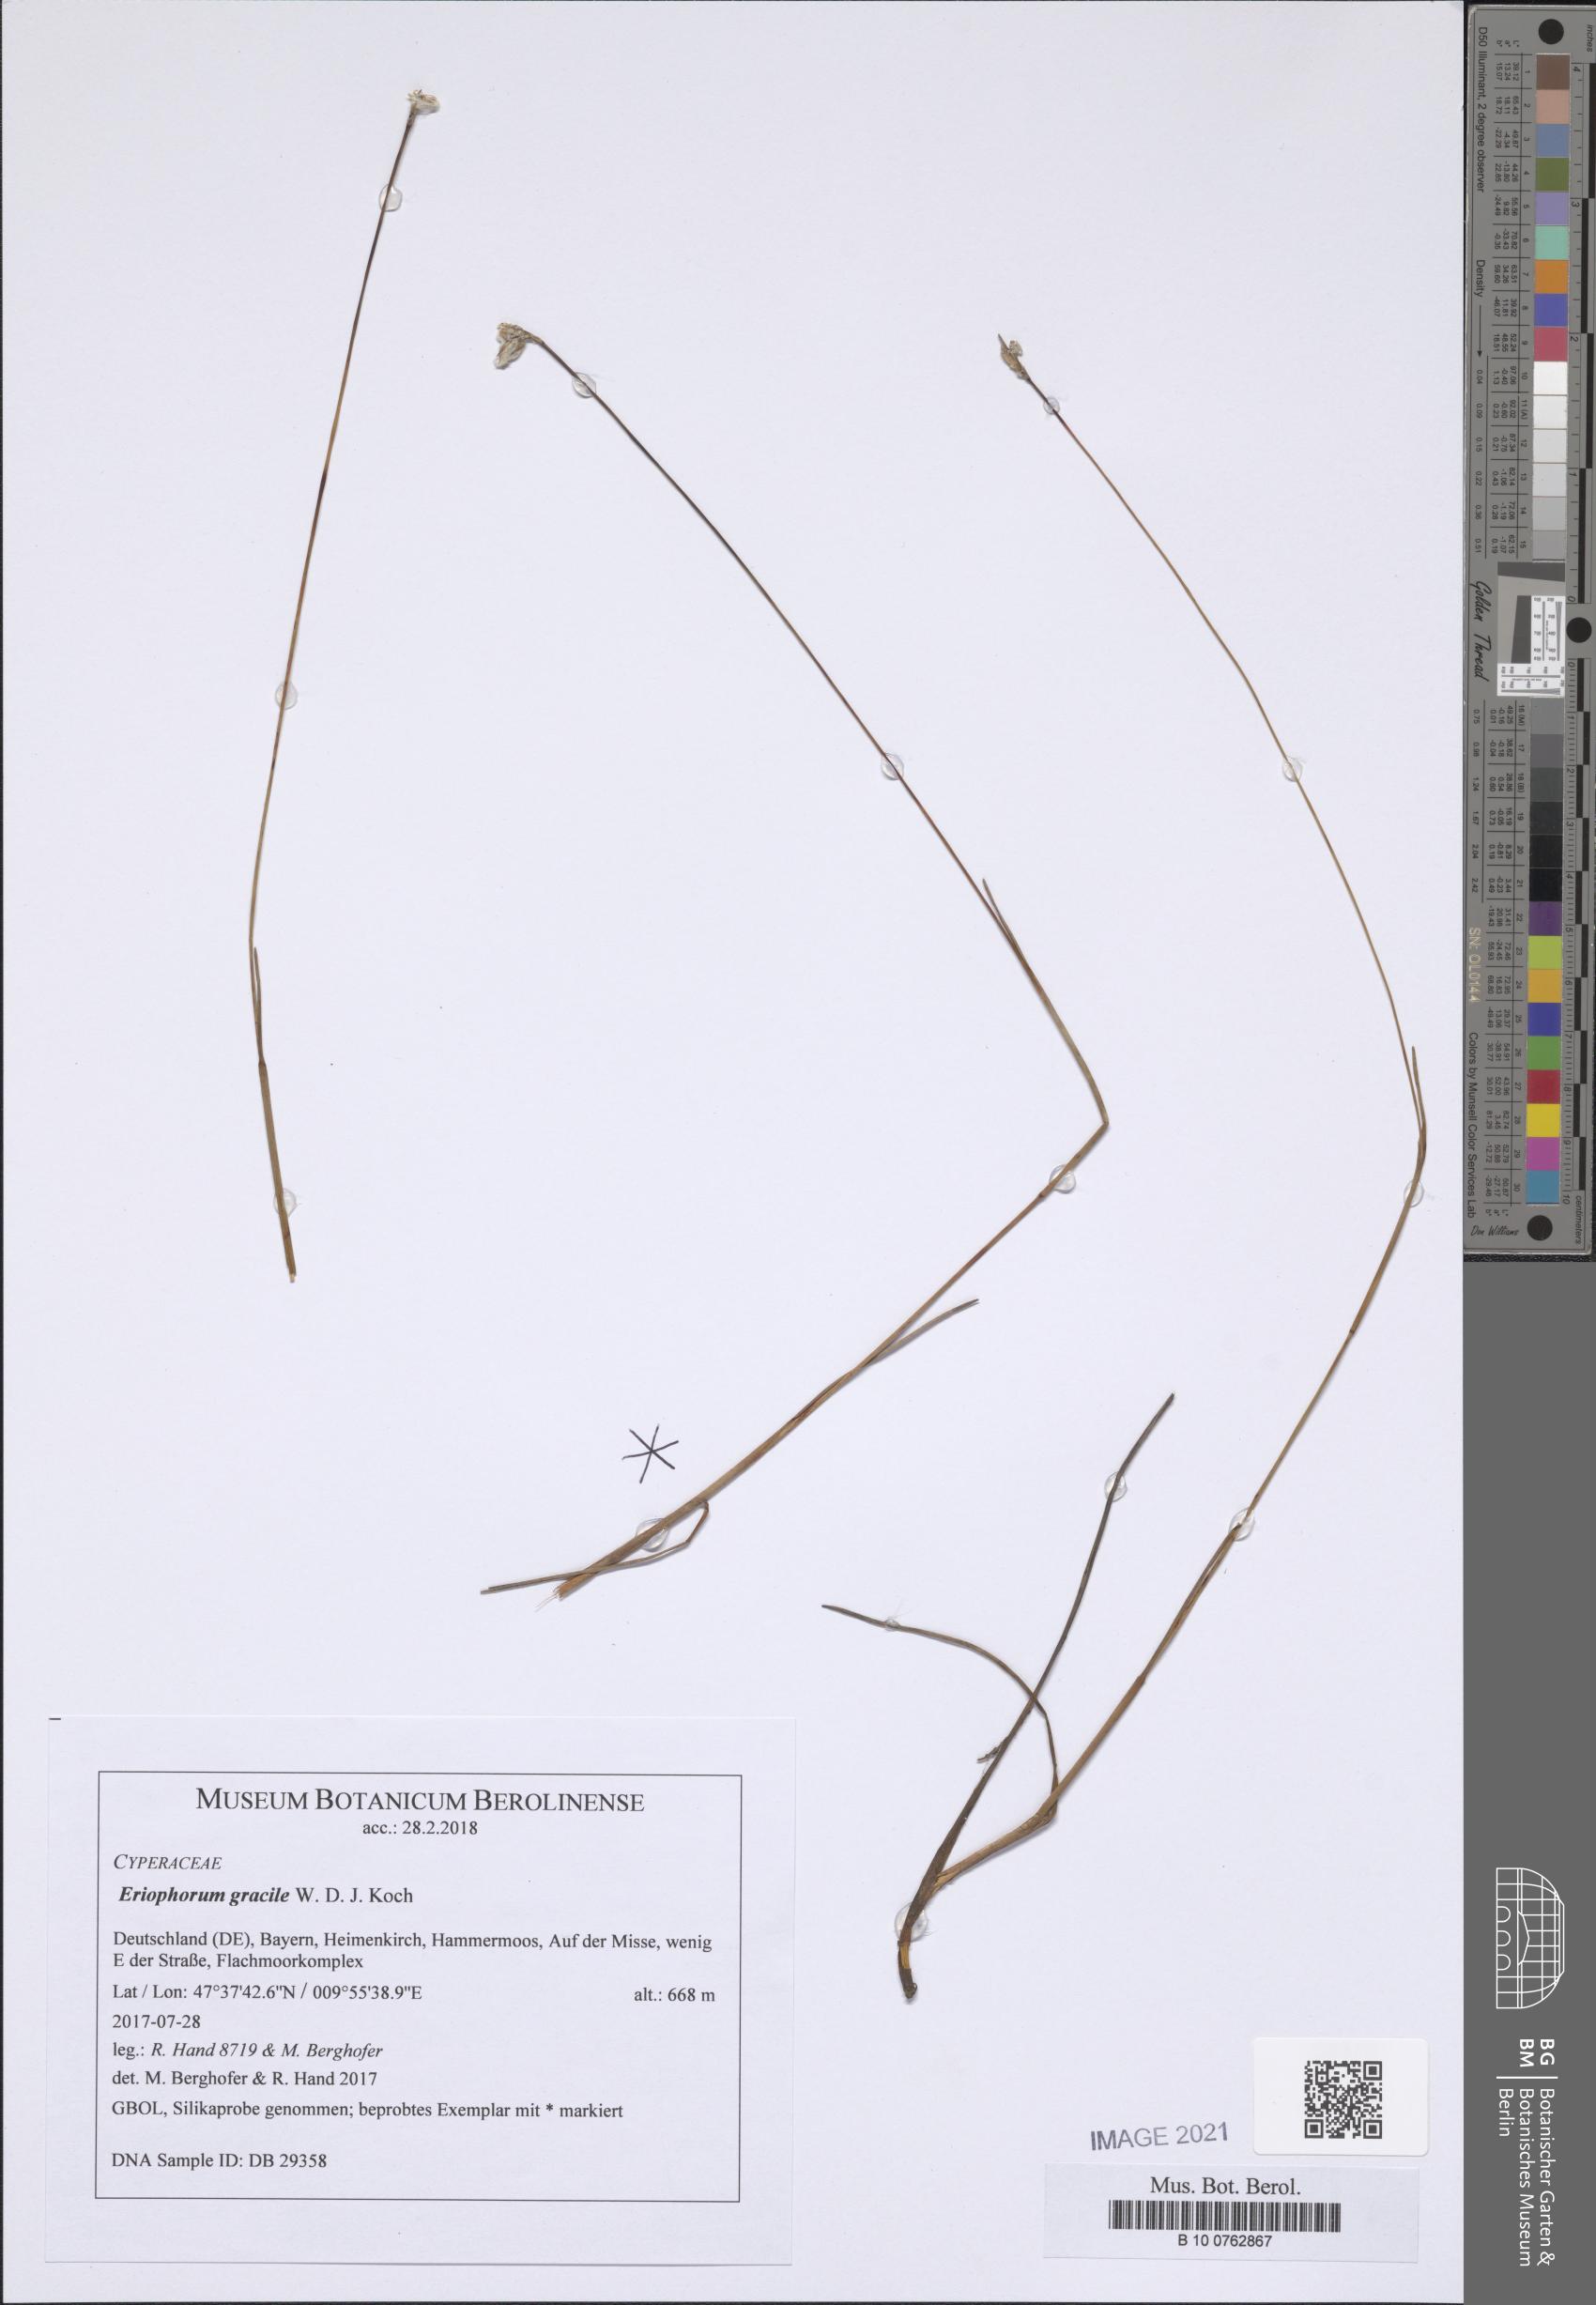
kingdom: Plantae
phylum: Tracheophyta
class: Liliopsida
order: Poales
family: Cyperaceae
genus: Eriophorum
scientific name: Eriophorum gracile
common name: Slender cottongrass
